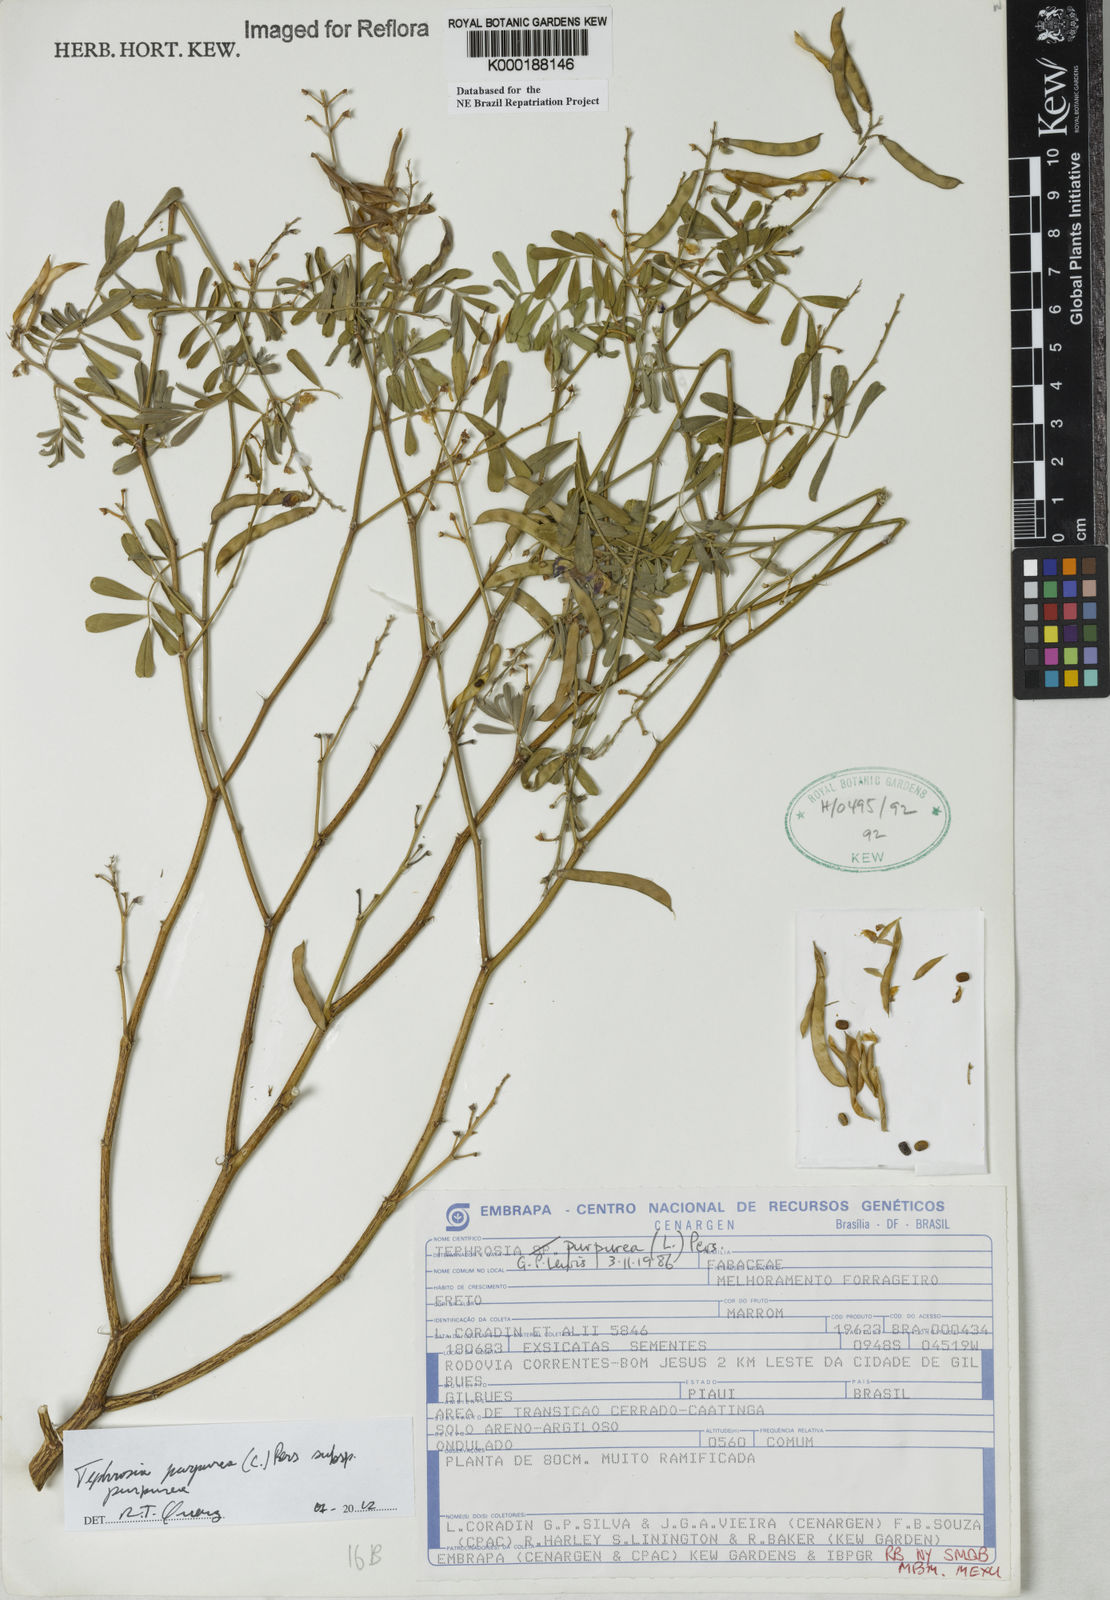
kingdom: Plantae
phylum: Tracheophyta
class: Magnoliopsida
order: Fabales
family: Fabaceae
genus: Tephrosia
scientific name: Tephrosia purpurea
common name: Fishpoison
